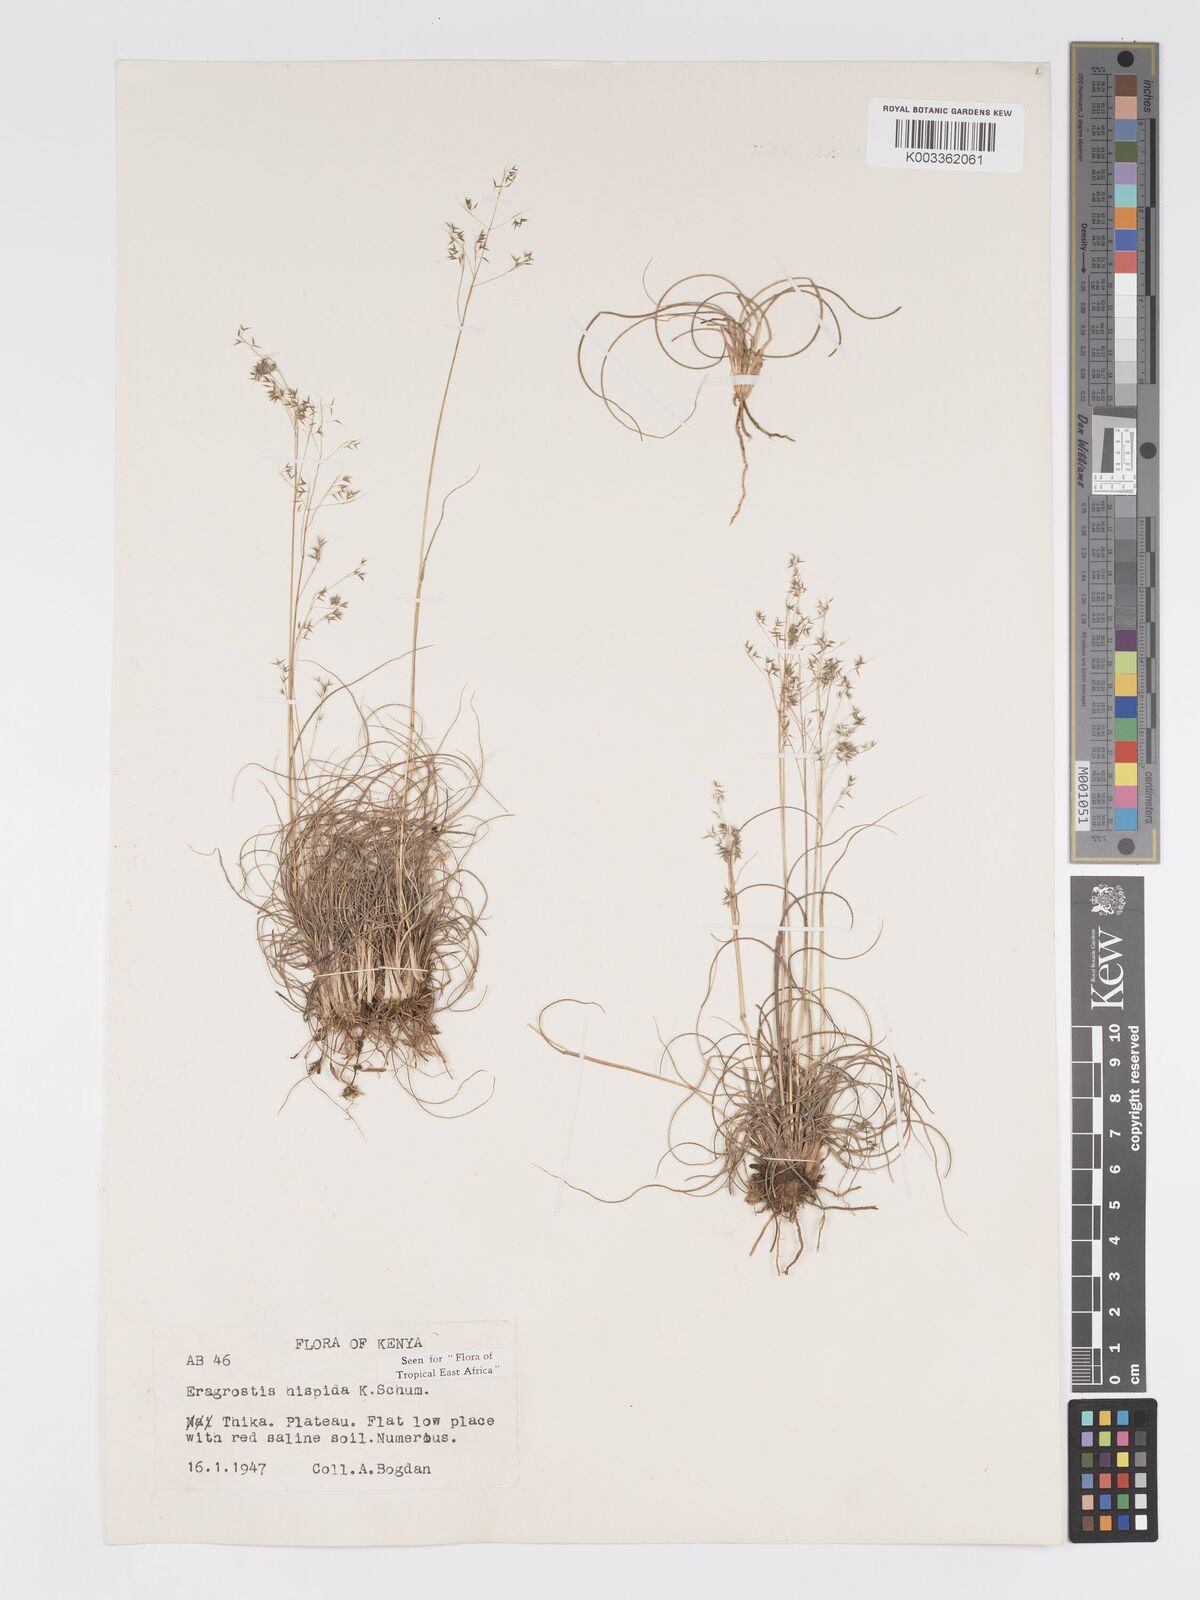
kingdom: Plantae
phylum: Tracheophyta
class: Liliopsida
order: Poales
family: Poaceae
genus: Eragrostis
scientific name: Eragrostis hispida
